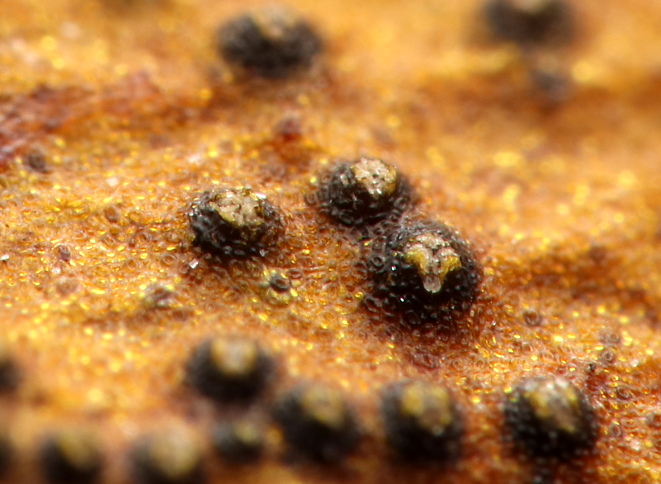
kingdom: Fungi
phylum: Ascomycota
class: Dothideomycetes
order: Botryosphaeriales
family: Botryosphaeriaceae
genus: Botryosphaeria
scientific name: Botryosphaeria visci
